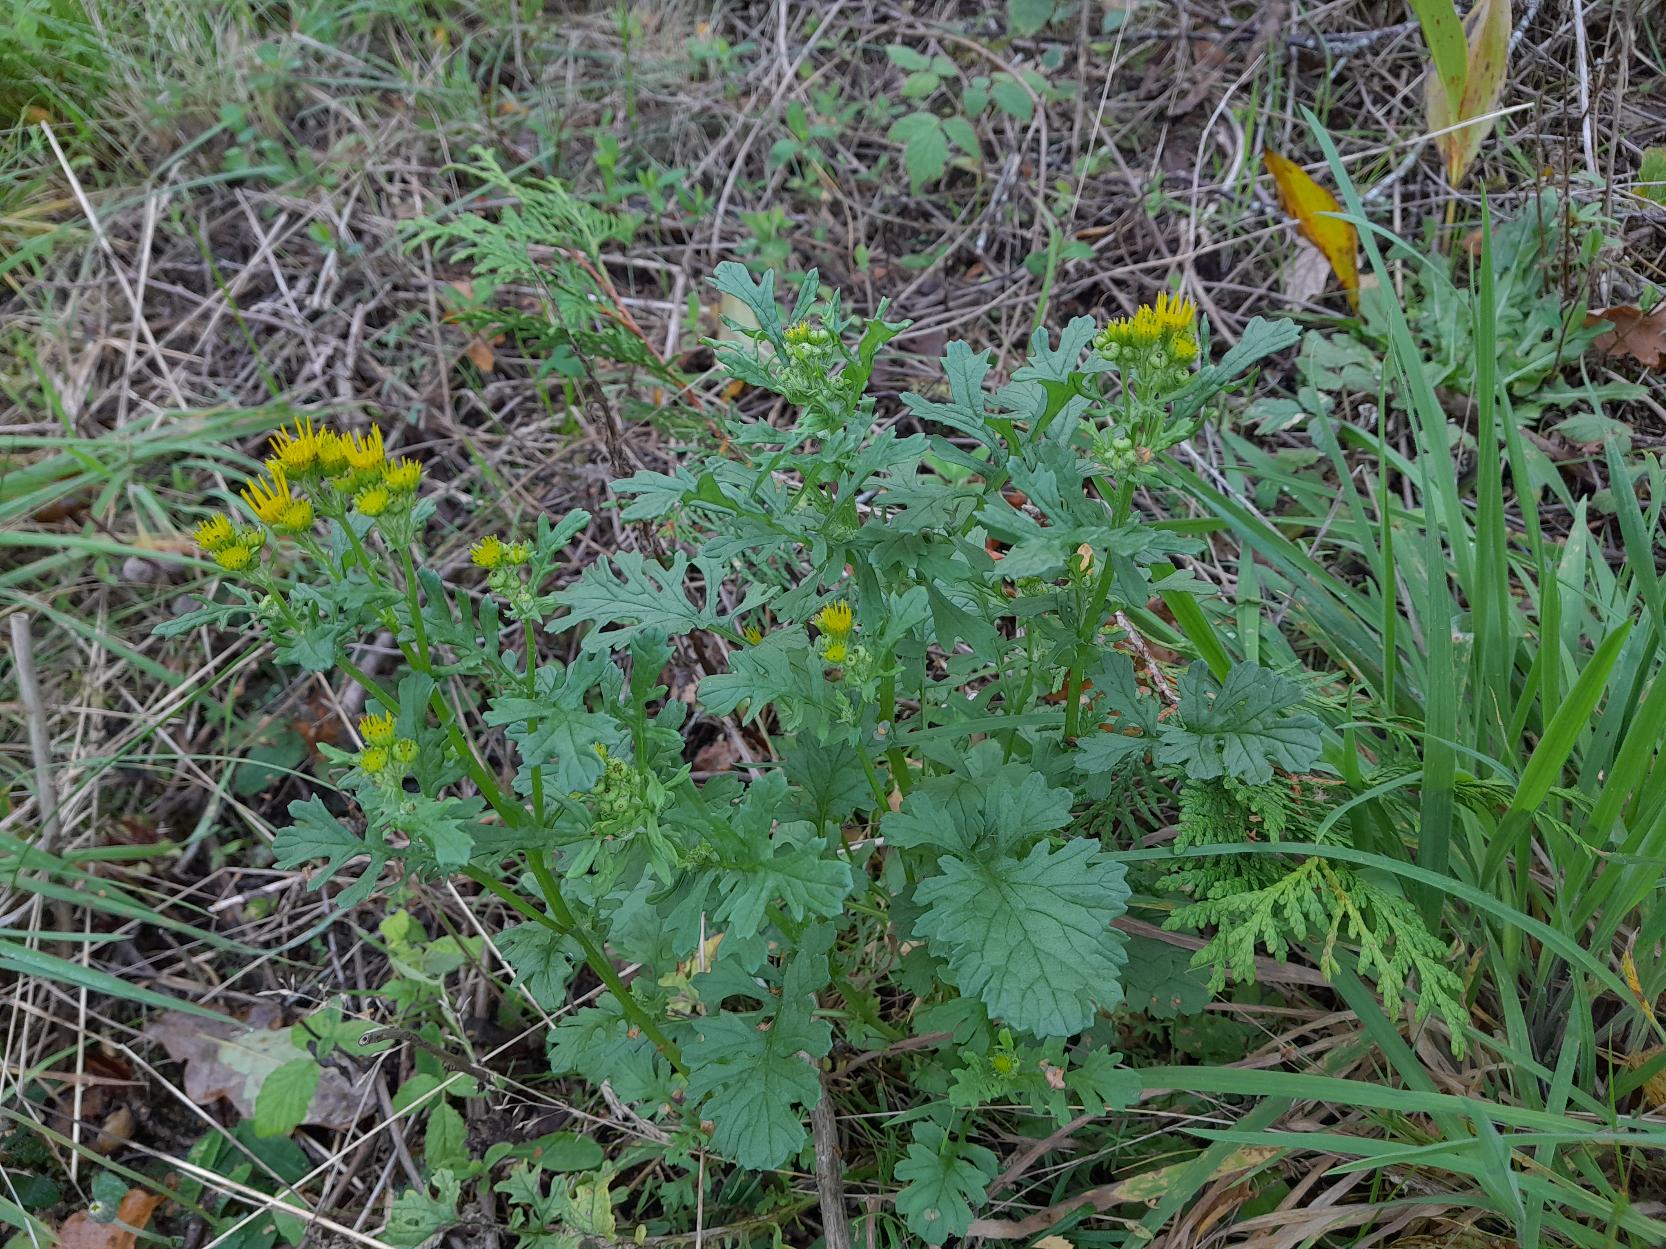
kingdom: Plantae
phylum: Tracheophyta
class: Magnoliopsida
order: Asterales
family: Asteraceae
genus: Jacobaea
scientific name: Jacobaea vulgaris
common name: Eng-brandbæger
